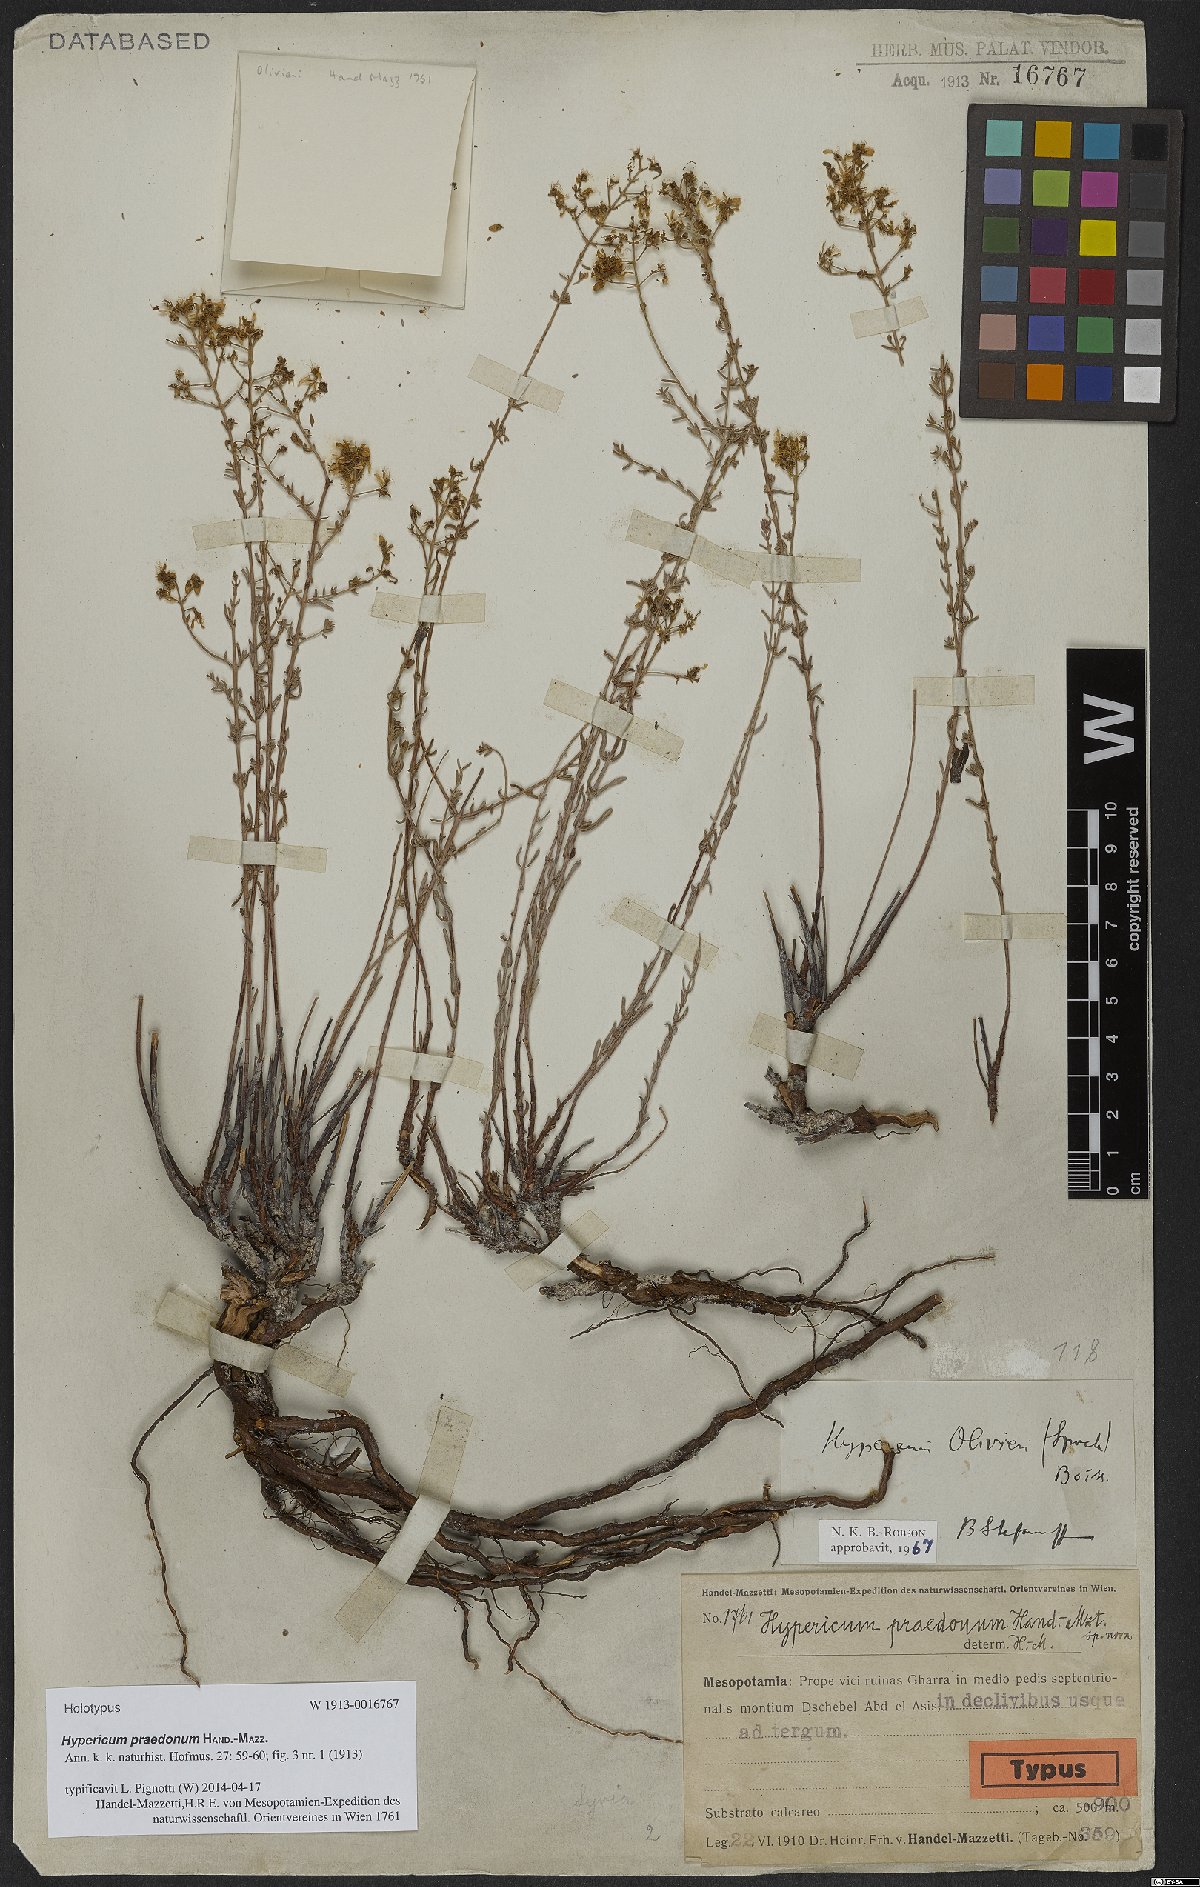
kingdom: Plantae
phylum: Tracheophyta
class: Magnoliopsida
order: Malpighiales
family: Hypericaceae
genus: Hypericum
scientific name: Hypericum olivieri
